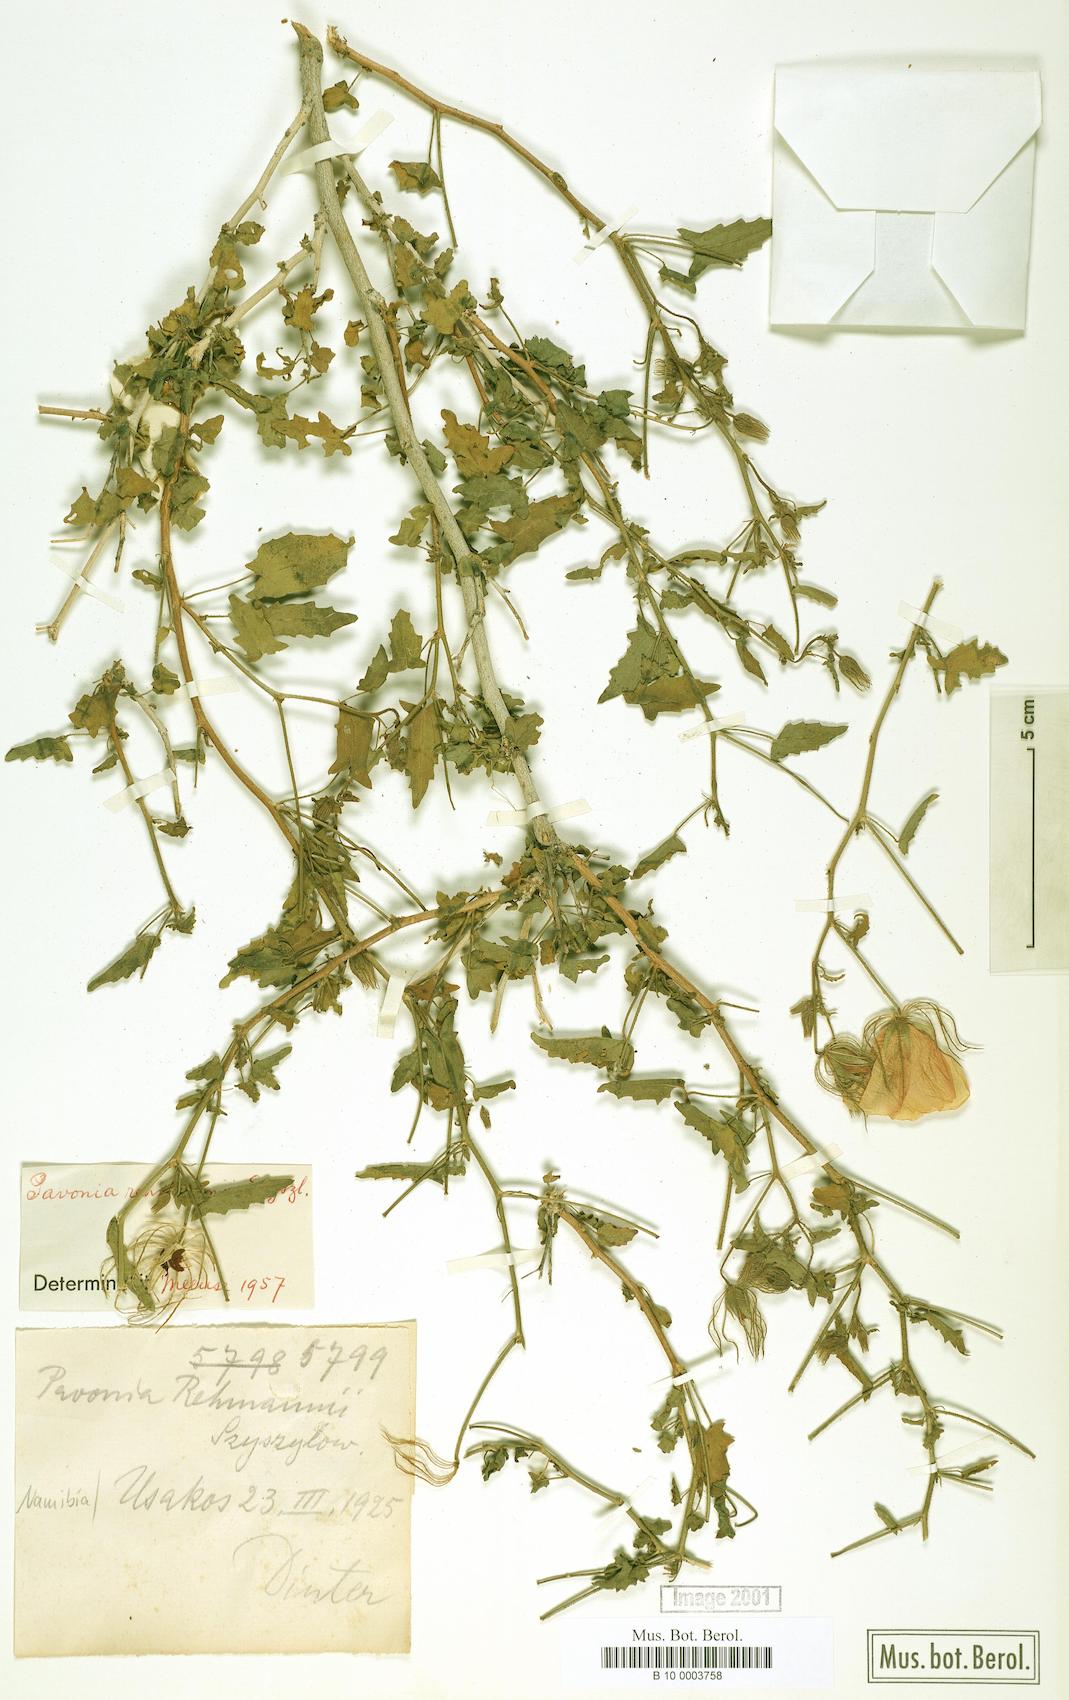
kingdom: Plantae
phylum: Tracheophyta
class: Magnoliopsida
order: Malvales
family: Malvaceae
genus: Pavonia
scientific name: Pavonia rehmannii
